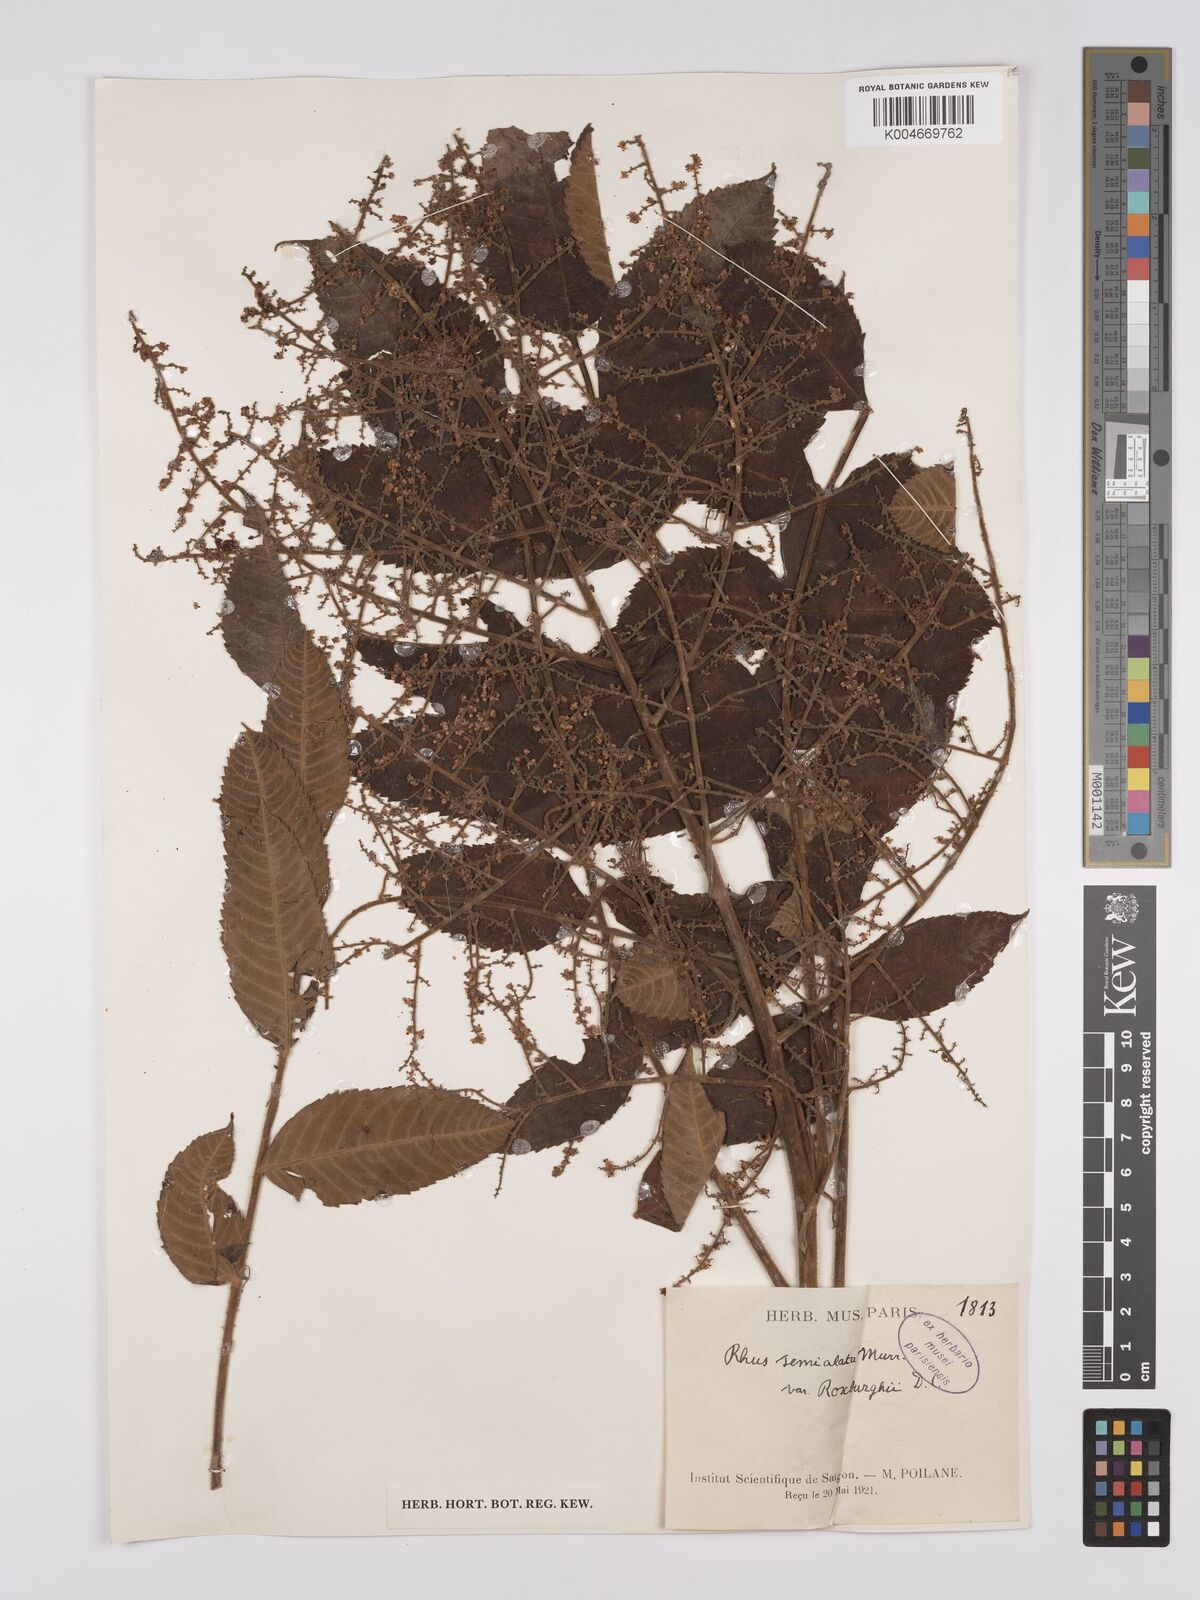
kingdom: Plantae
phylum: Tracheophyta
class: Magnoliopsida
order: Sapindales
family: Anacardiaceae
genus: Rhus
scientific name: Rhus chinensis
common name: Chinese gall
